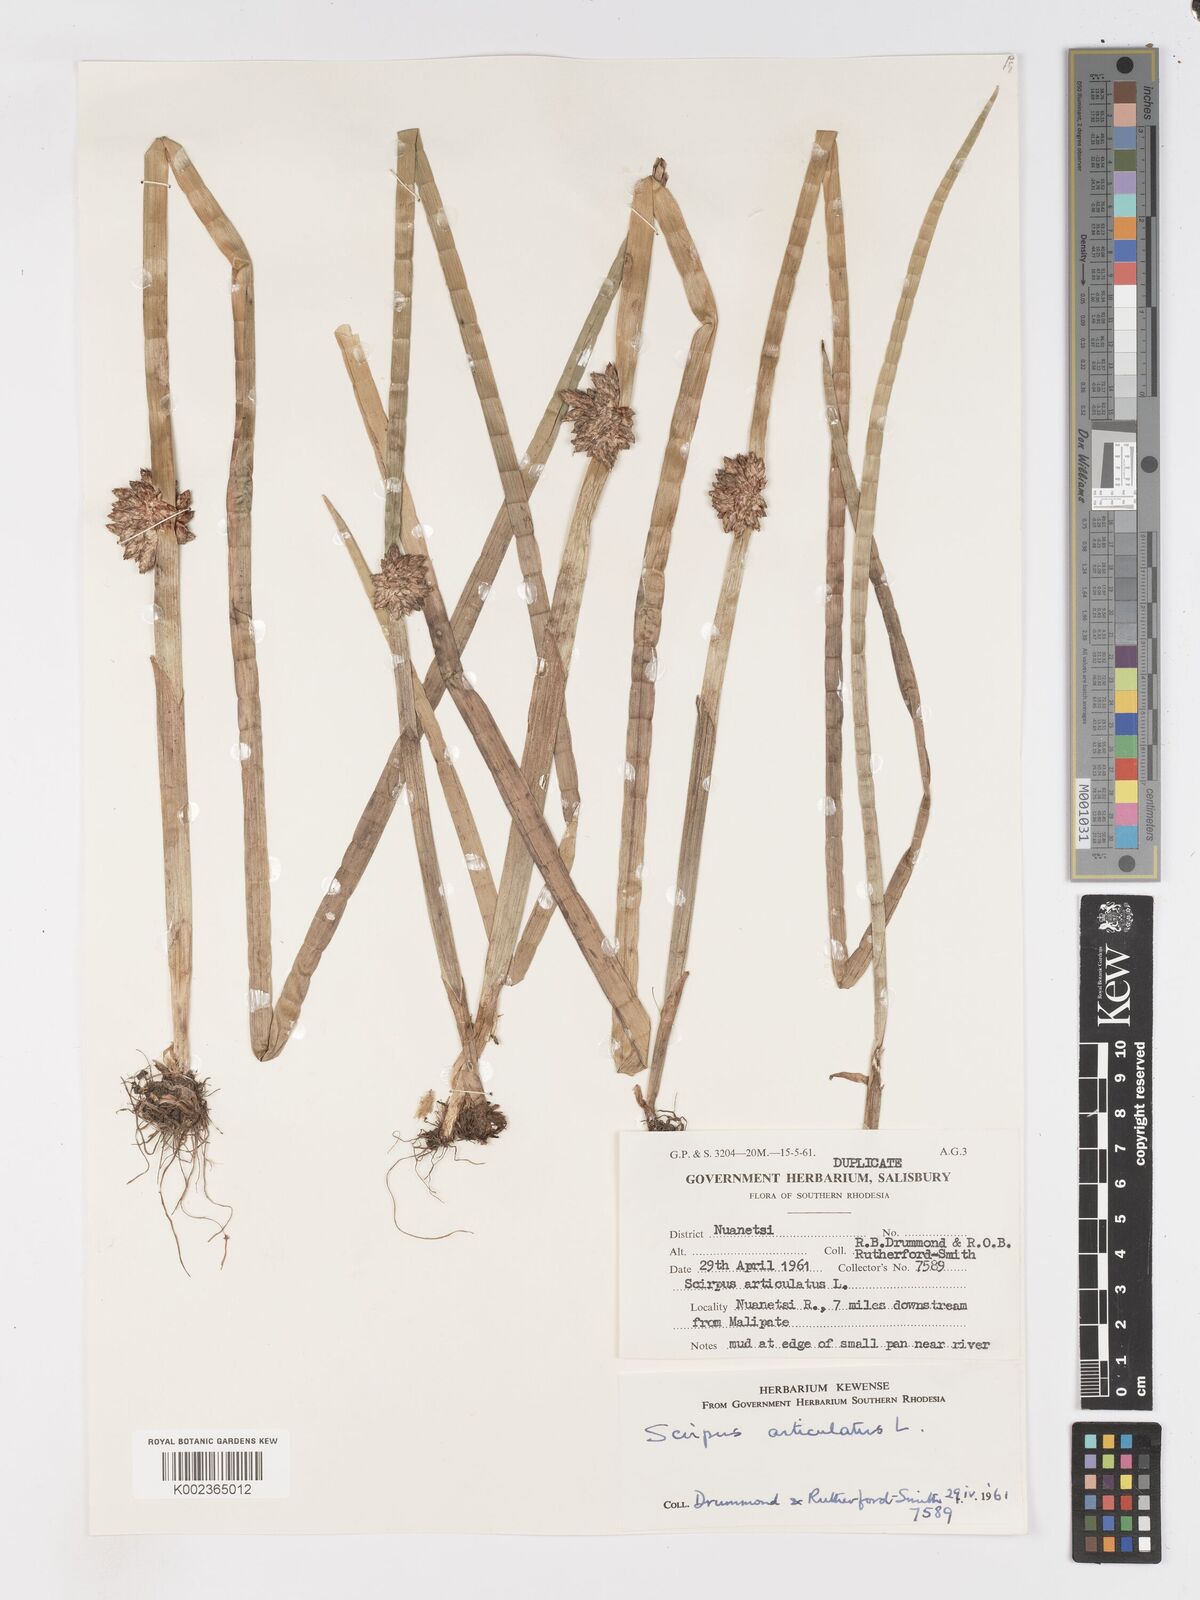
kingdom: Plantae
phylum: Tracheophyta
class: Liliopsida
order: Poales
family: Cyperaceae
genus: Schoenoplectiella
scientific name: Schoenoplectiella articulata
